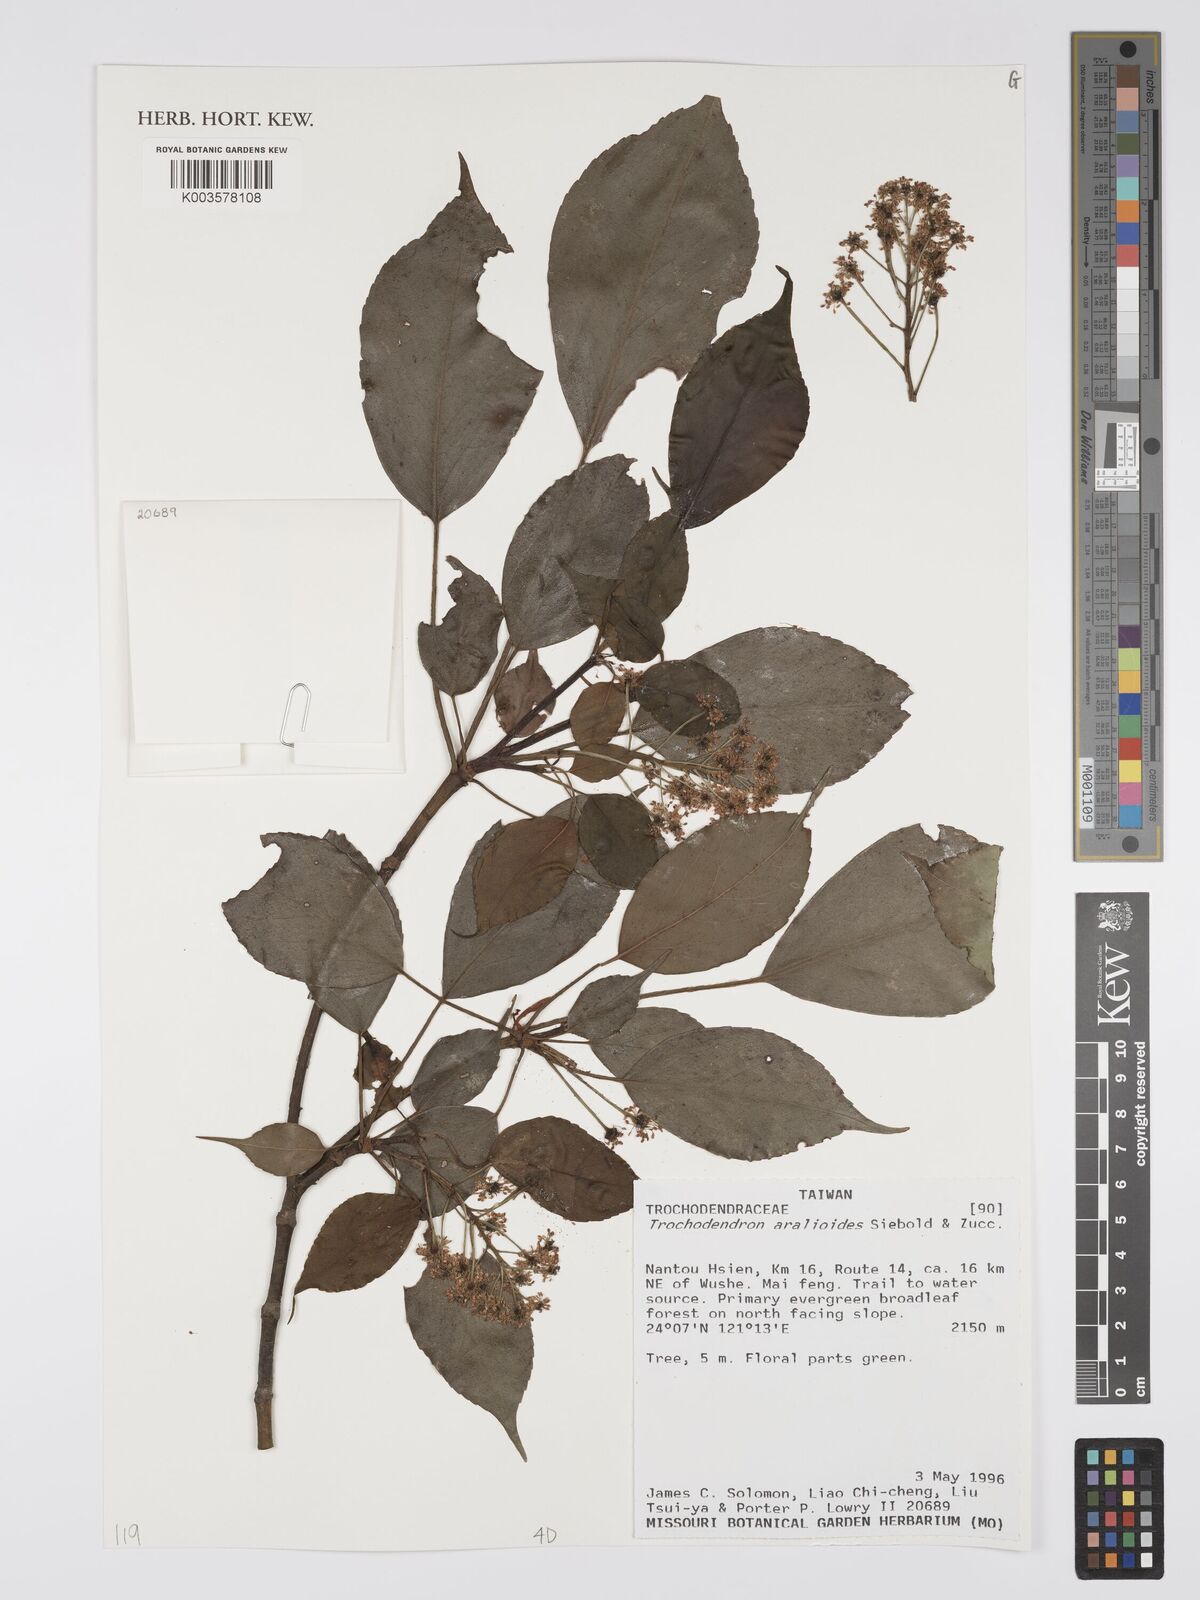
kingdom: Plantae
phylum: Tracheophyta
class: Magnoliopsida
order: Trochodendrales
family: Trochodendraceae
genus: Trochodendron
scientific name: Trochodendron
